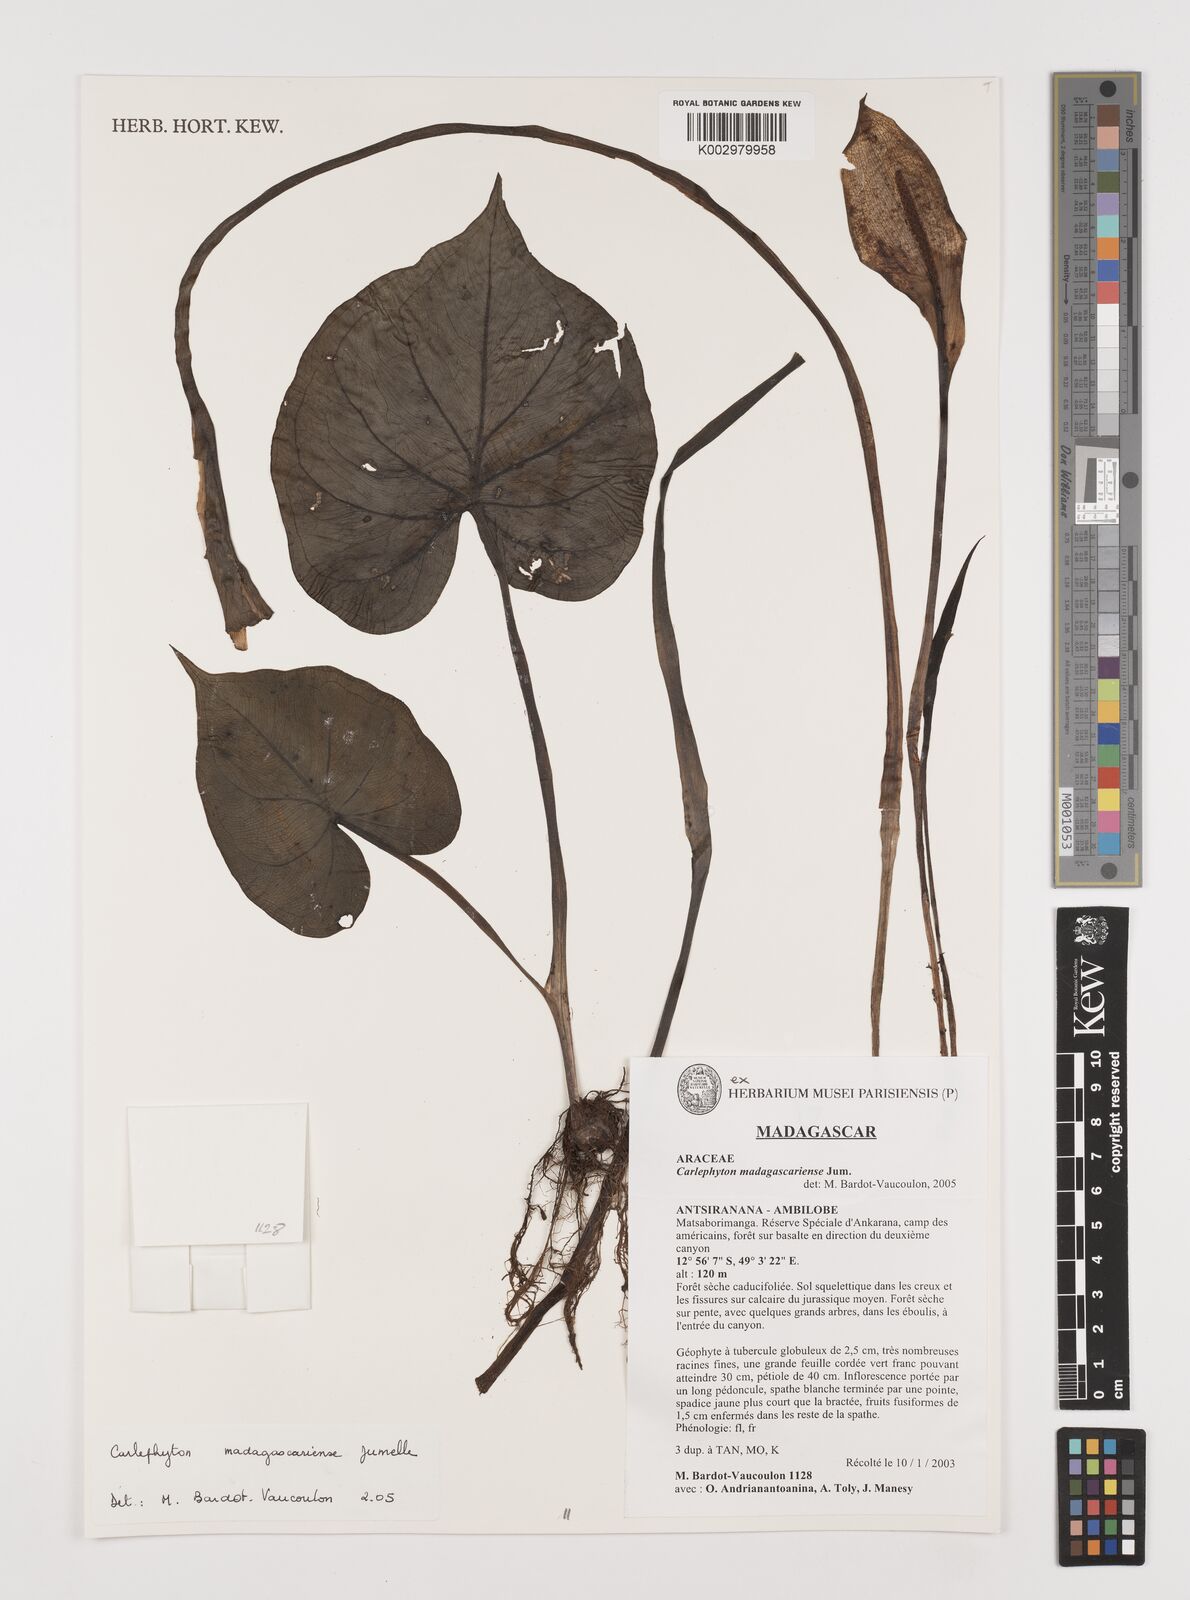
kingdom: Plantae
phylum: Tracheophyta
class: Liliopsida
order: Alismatales
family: Araceae
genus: Carlephyton
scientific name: Carlephyton madagascariense
